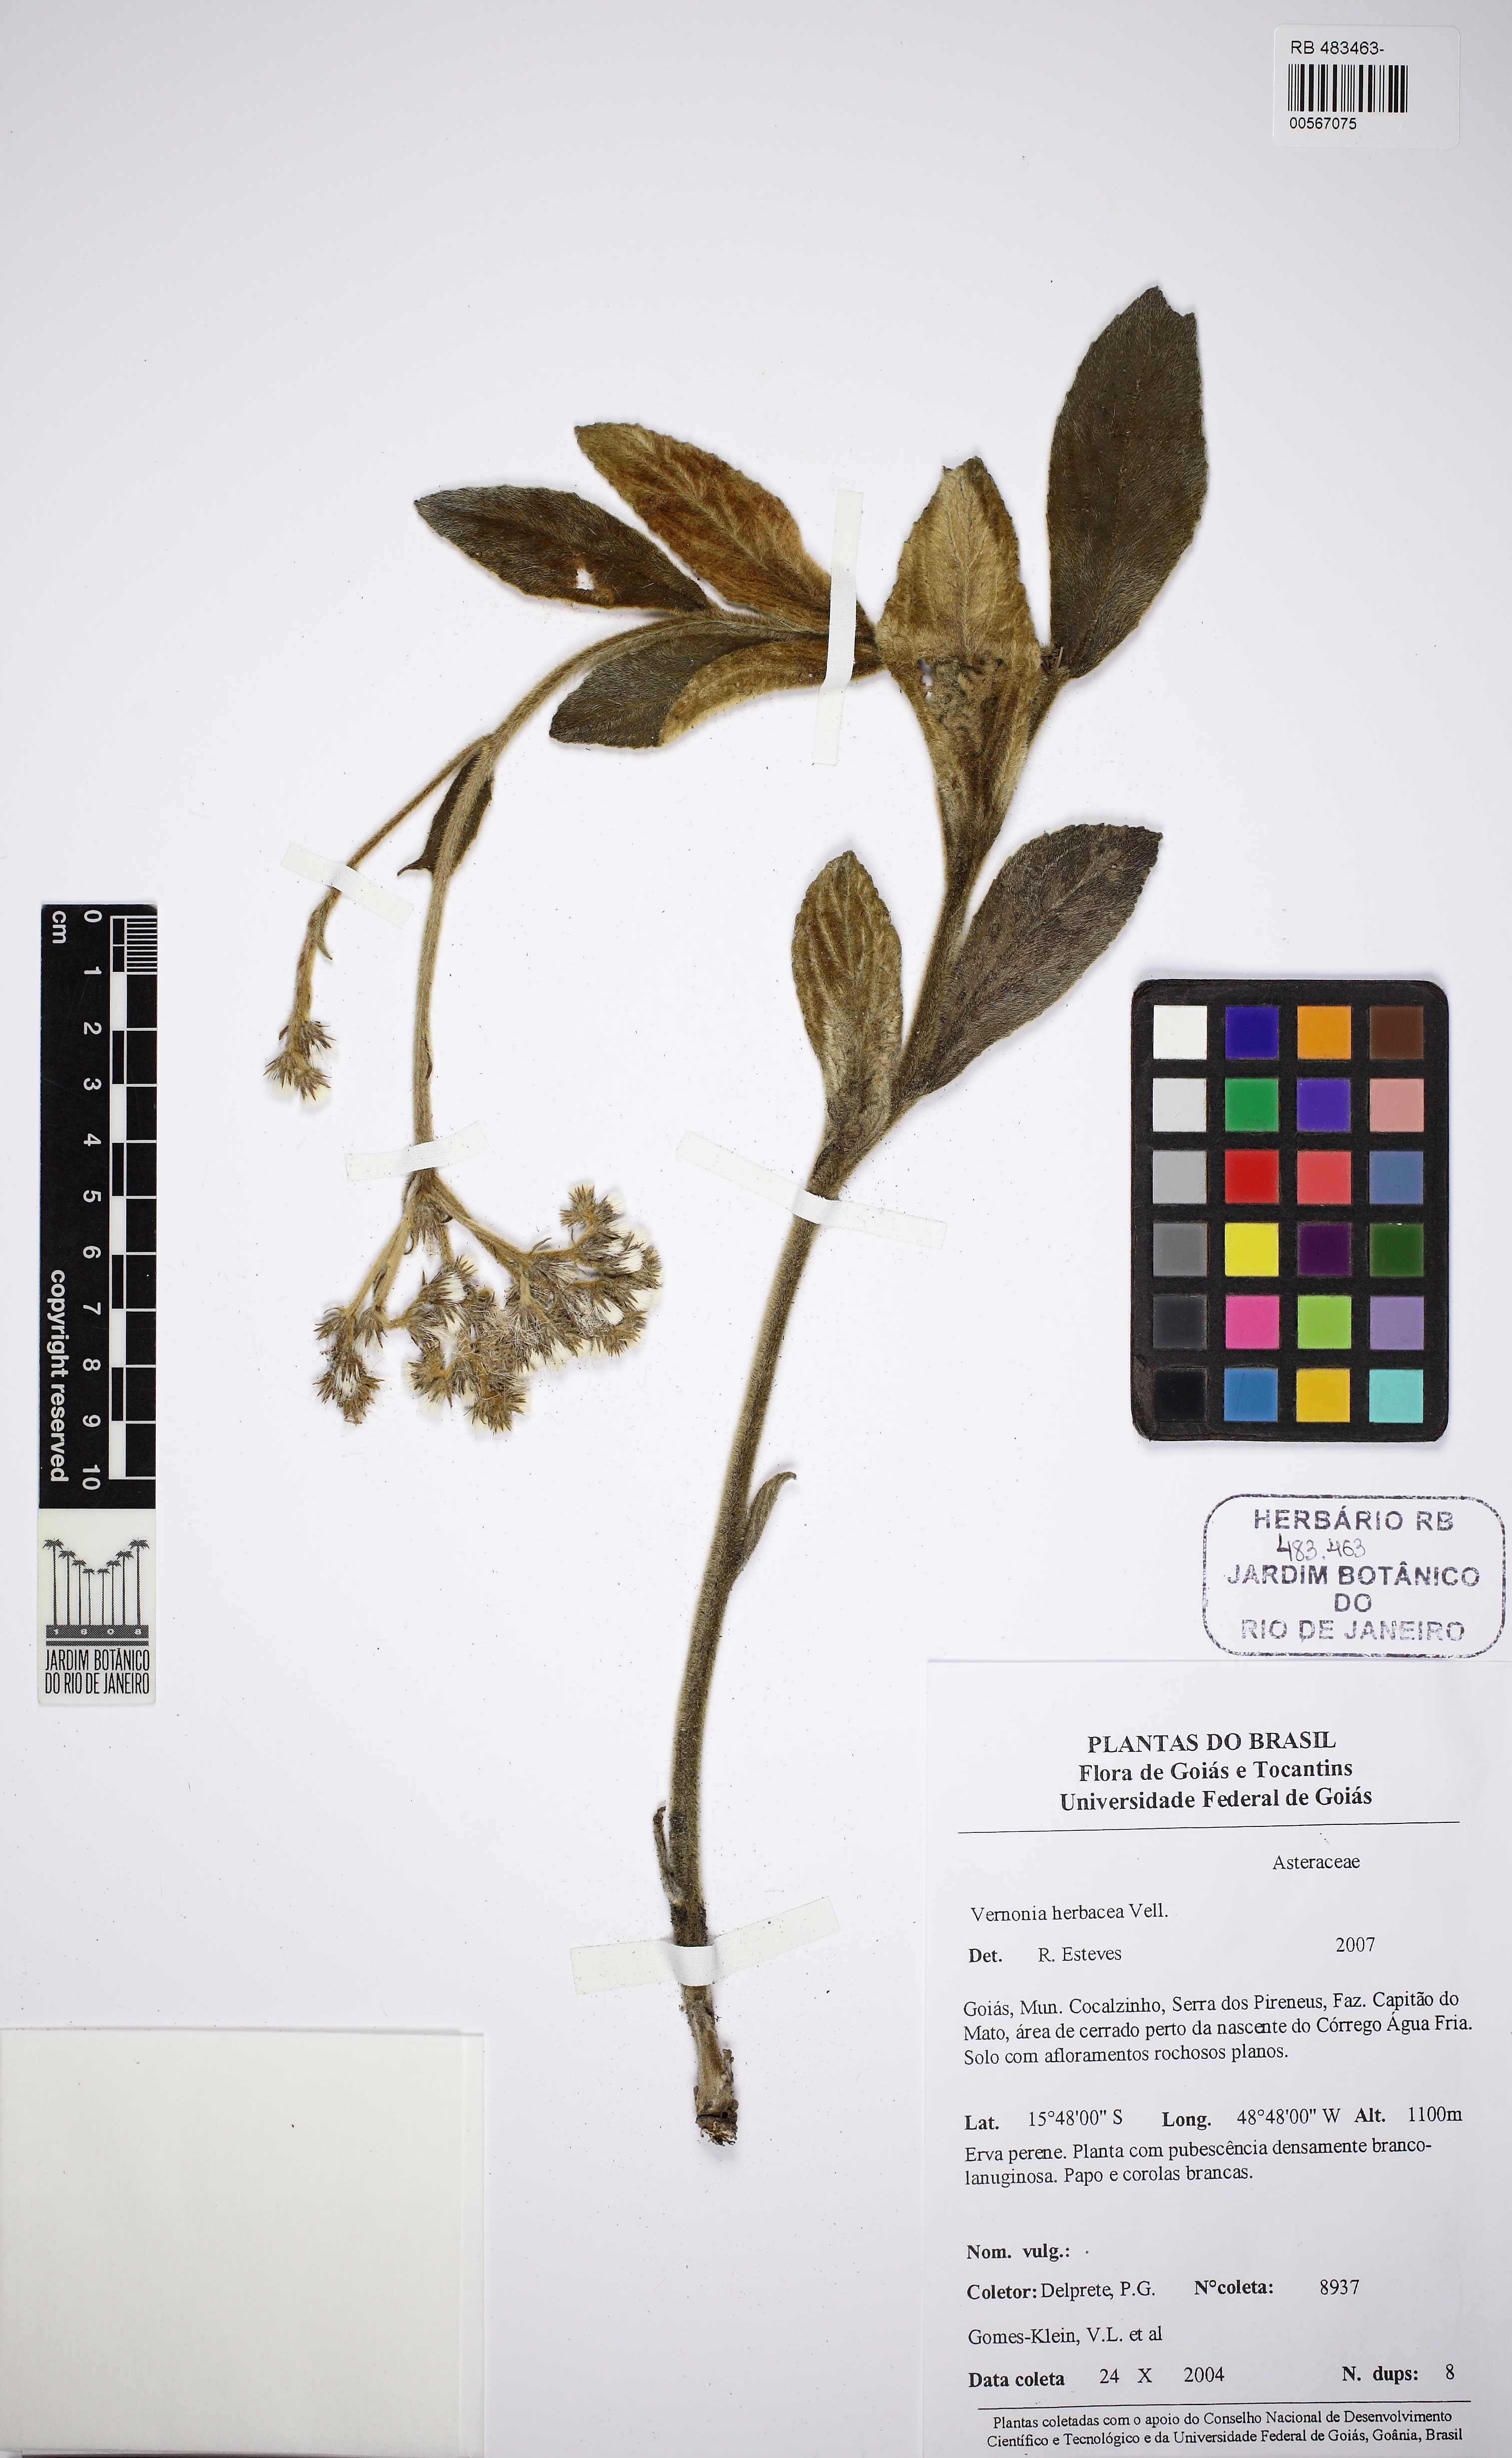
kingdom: Plantae
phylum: Tracheophyta
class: Magnoliopsida
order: Asterales
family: Asteraceae
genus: Chrysolaena
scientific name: Chrysolaena obovata
